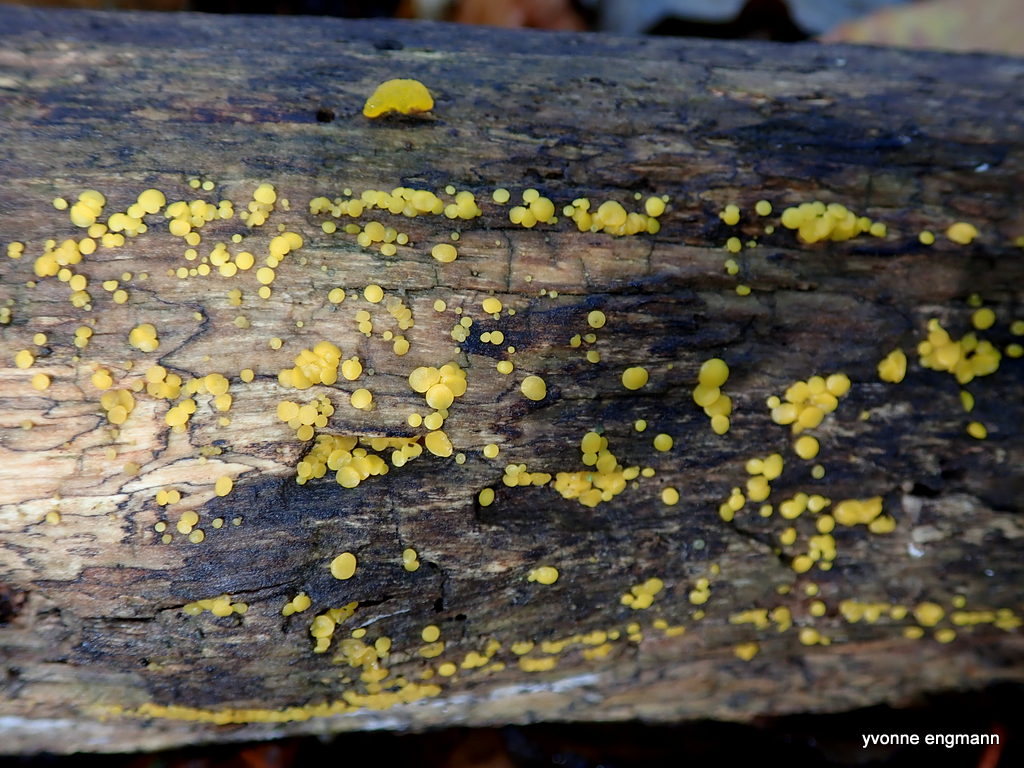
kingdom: Fungi
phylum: Ascomycota
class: Leotiomycetes
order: Helotiales
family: Pezizellaceae
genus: Calycina
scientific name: Calycina citrina
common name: almindelig gulskive
